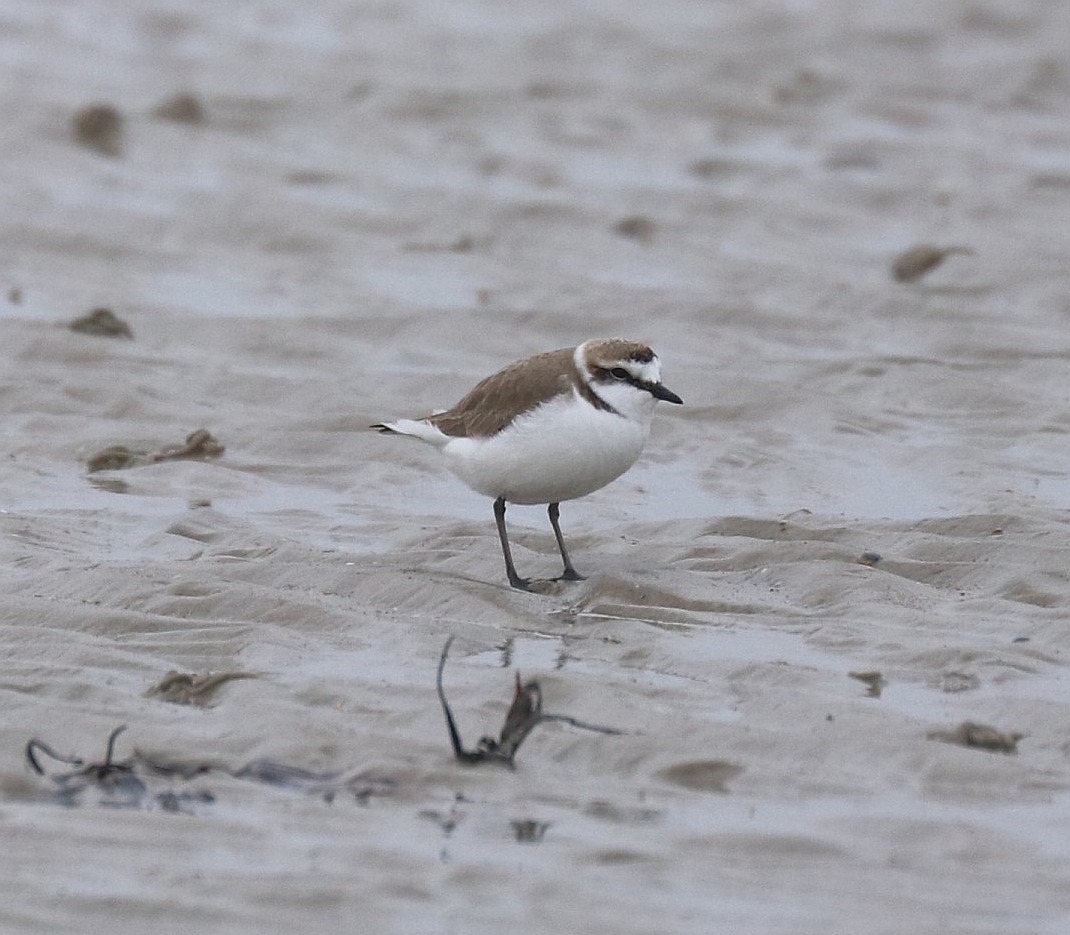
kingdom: Animalia
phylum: Chordata
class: Aves
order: Charadriiformes
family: Charadriidae
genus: Charadrius
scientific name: Charadrius alexandrinus
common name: Hvidbrystet præstekrave
